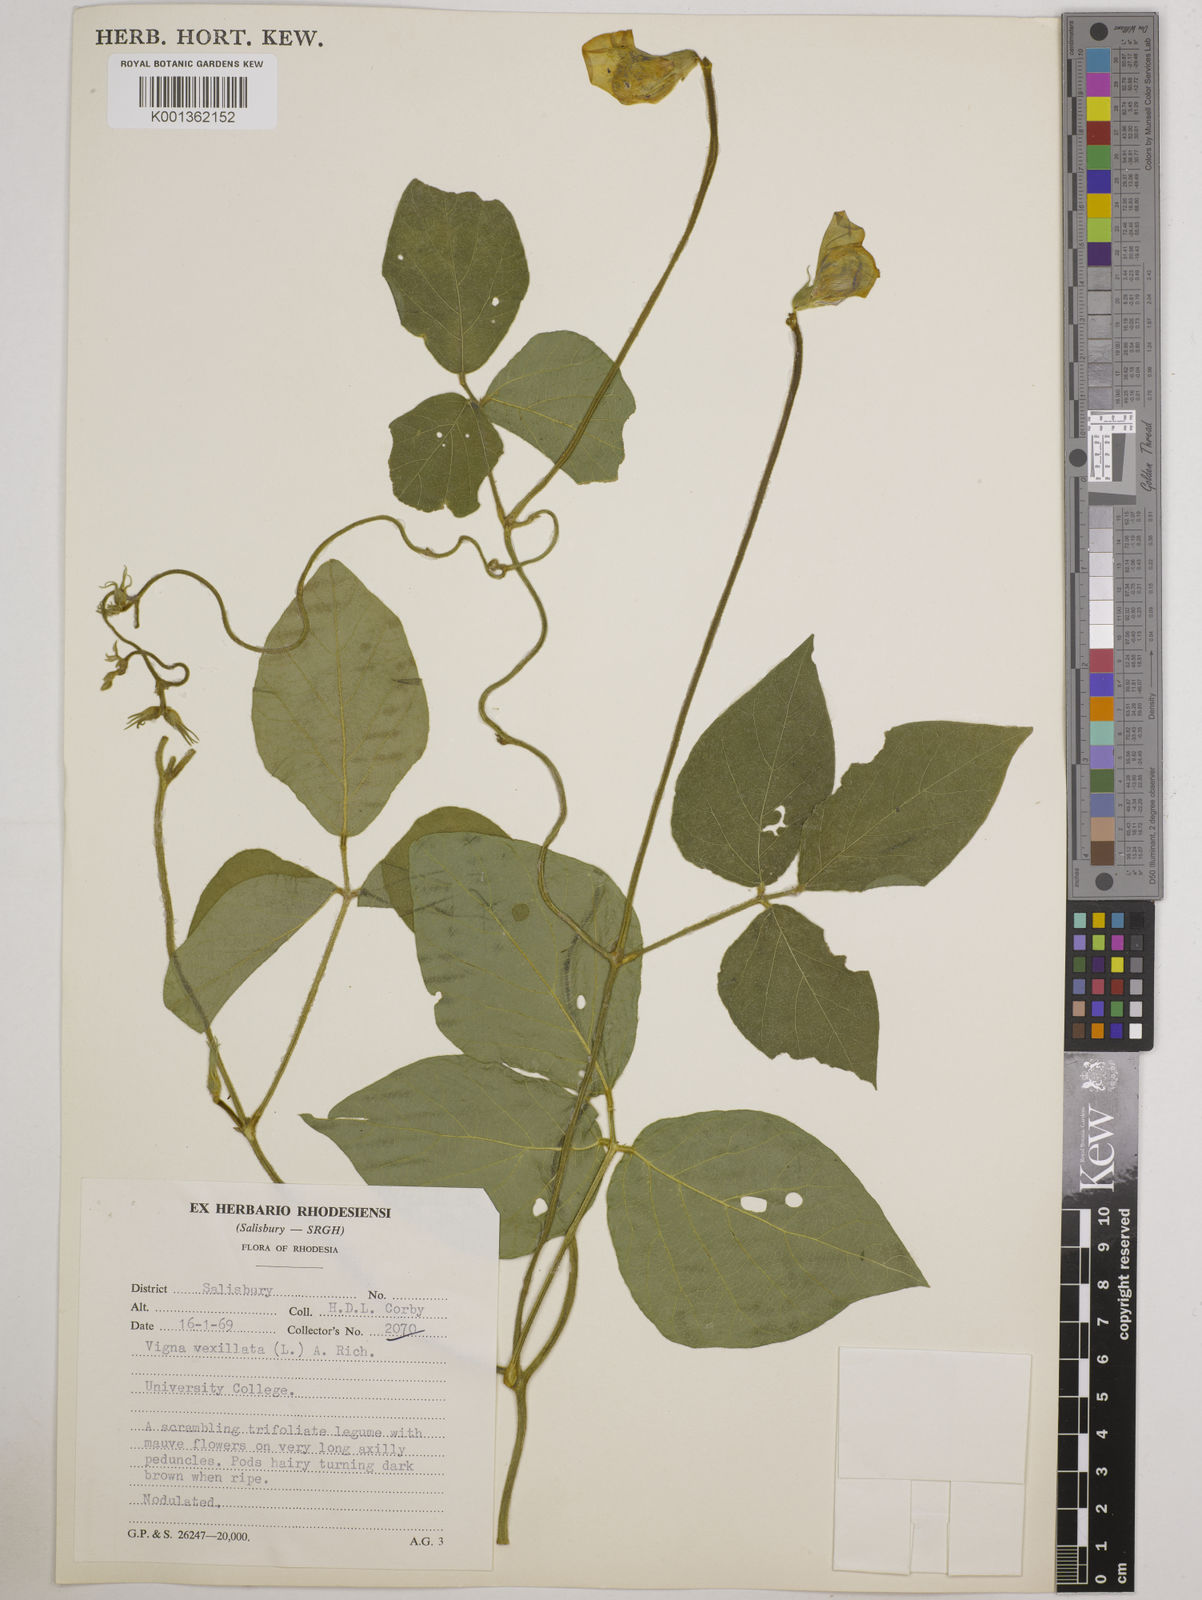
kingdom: Plantae
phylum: Tracheophyta
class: Magnoliopsida
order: Fabales
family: Fabaceae
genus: Vigna
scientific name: Vigna vexillata
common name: Zombi pea
